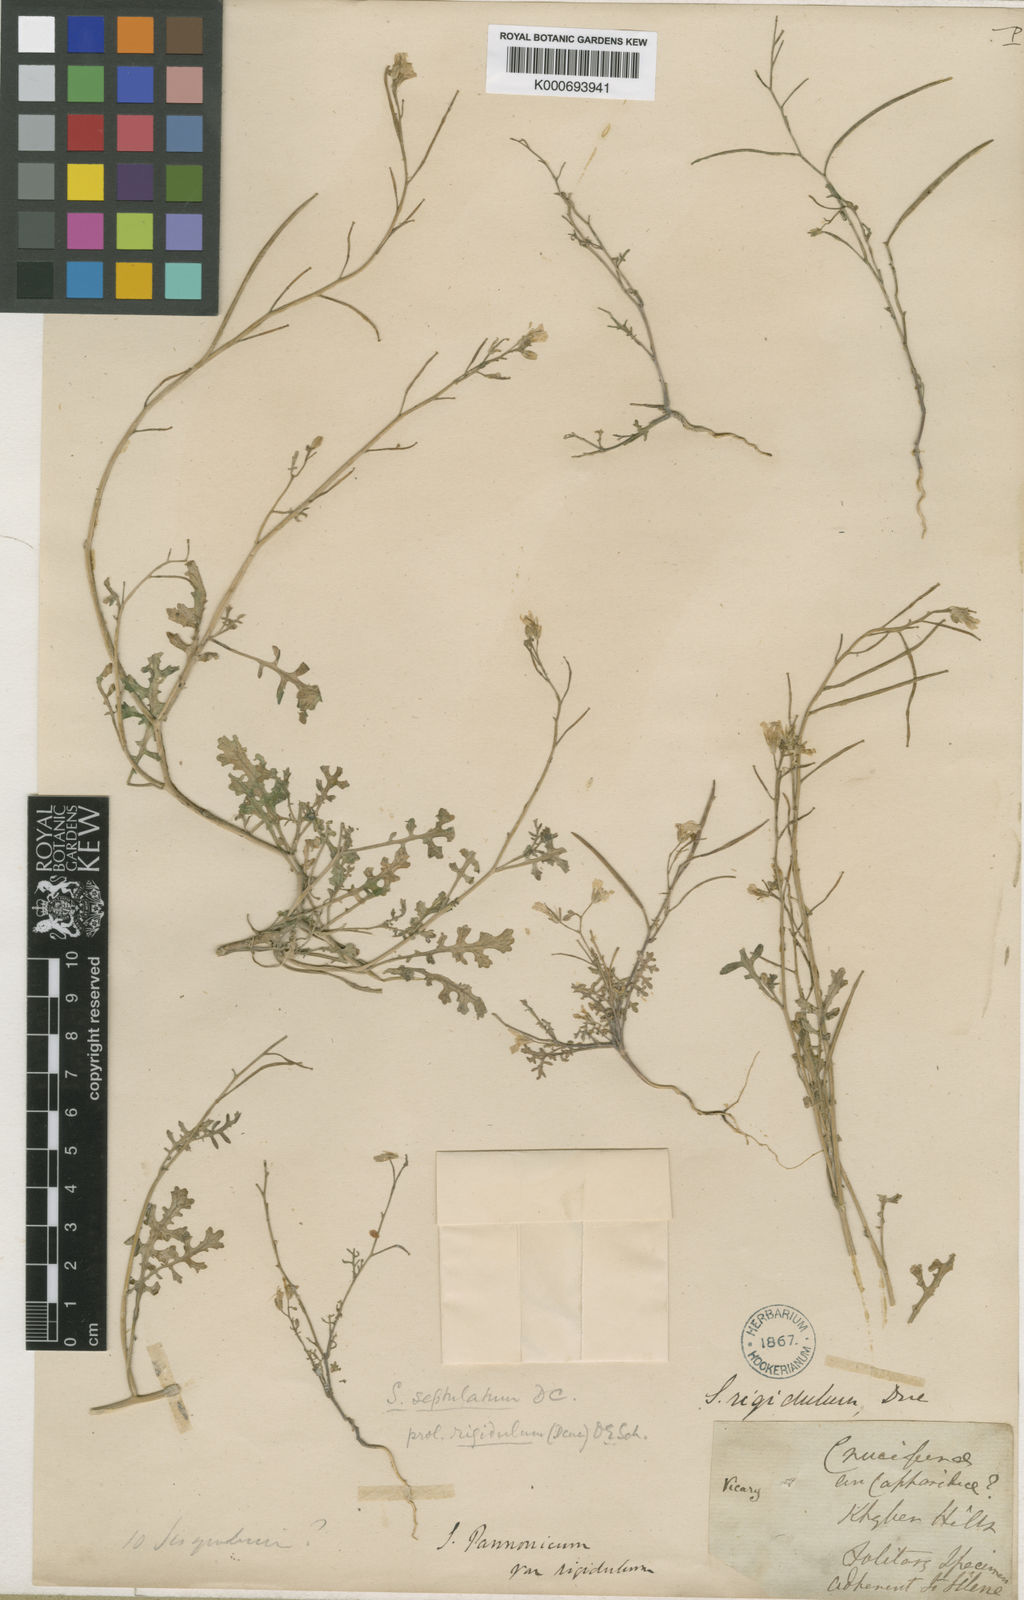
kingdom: Plantae
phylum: Tracheophyta
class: Magnoliopsida
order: Brassicales
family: Brassicaceae
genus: Sisymbrium
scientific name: Sisymbrium
